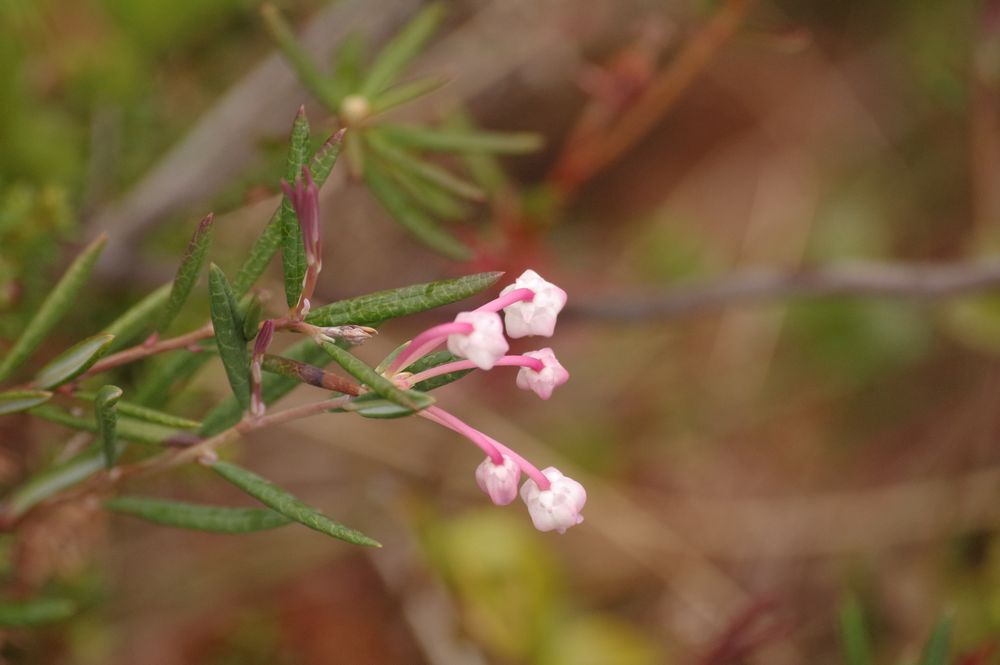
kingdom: Plantae
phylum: Tracheophyta
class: Magnoliopsida
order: Ericales
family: Ericaceae
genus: Andromeda
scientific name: Andromeda polifolia
